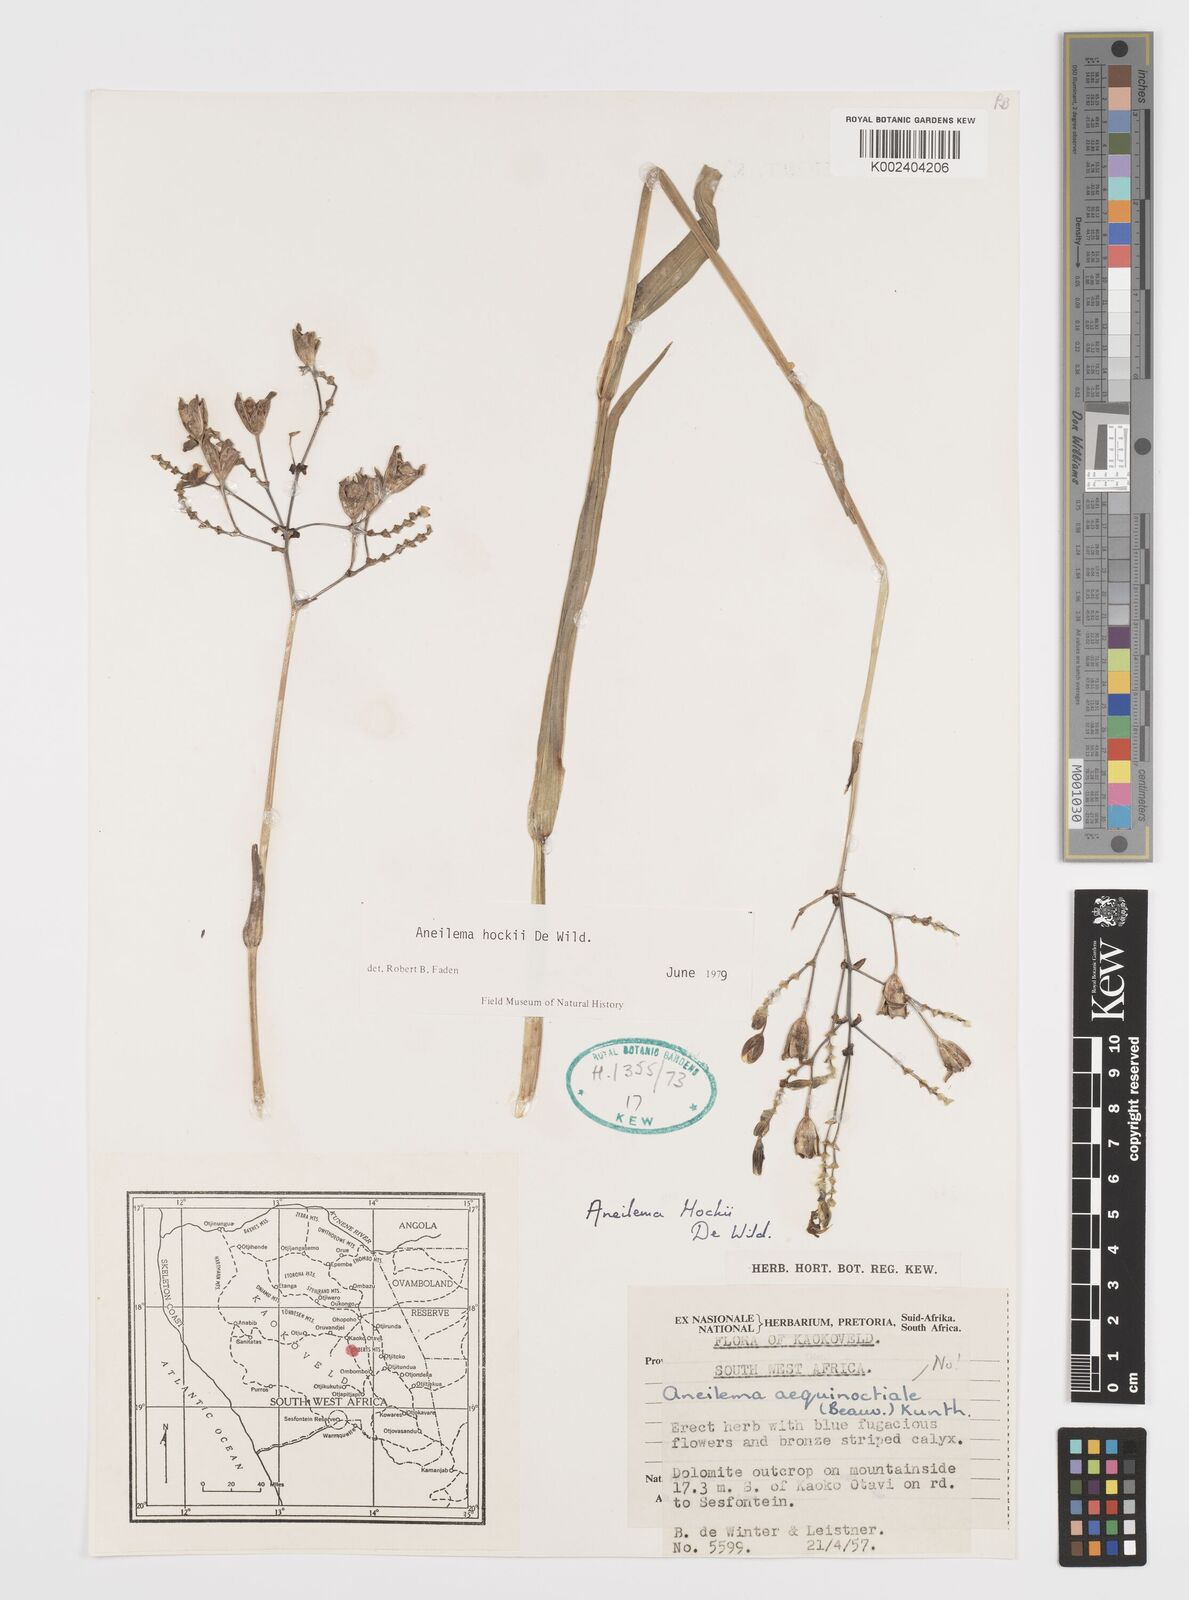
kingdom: Plantae
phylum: Tracheophyta
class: Liliopsida
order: Commelinales
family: Commelinaceae
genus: Aneilema
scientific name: Aneilema hockii
